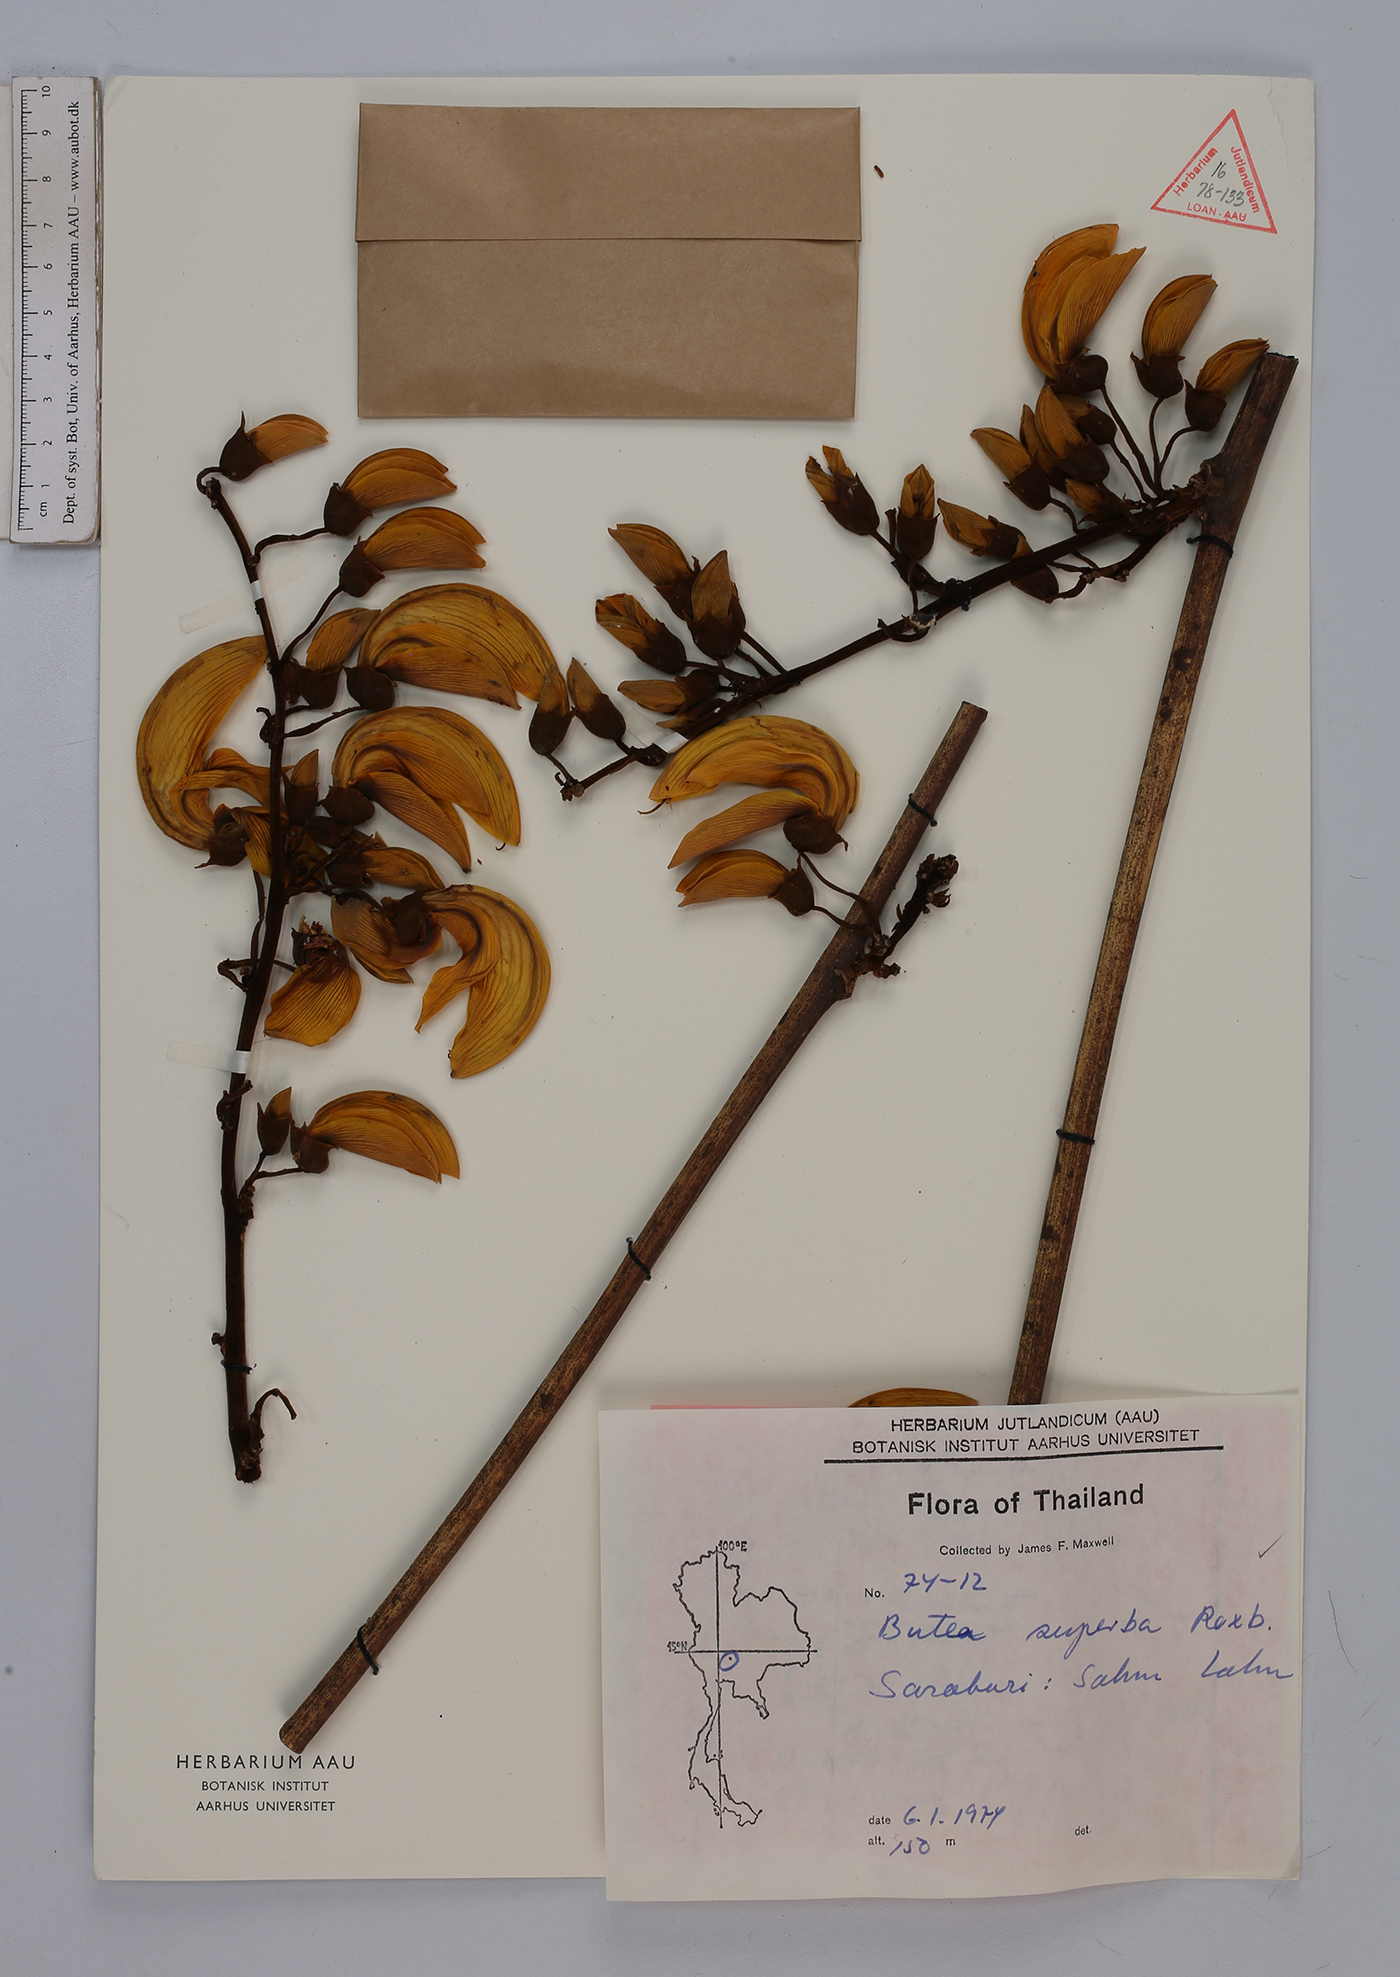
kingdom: Plantae
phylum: Tracheophyta
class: Magnoliopsida
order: Fabales
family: Fabaceae
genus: Butea
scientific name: Butea superba
